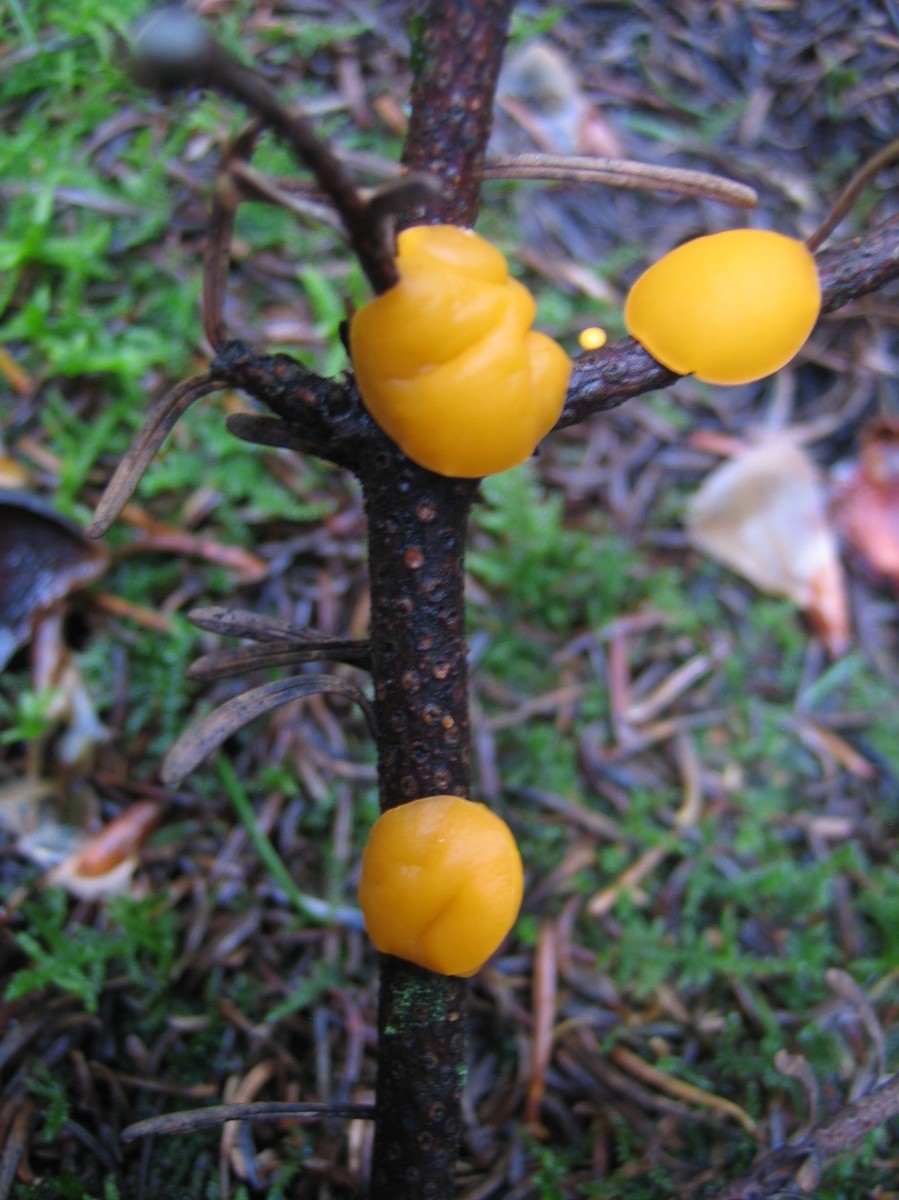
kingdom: Fungi
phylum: Ascomycota
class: Pezizomycetes
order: Pezizales
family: Sarcoscyphaceae
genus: Pithya
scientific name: Pithya vulgaris
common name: stor dukatbæger
